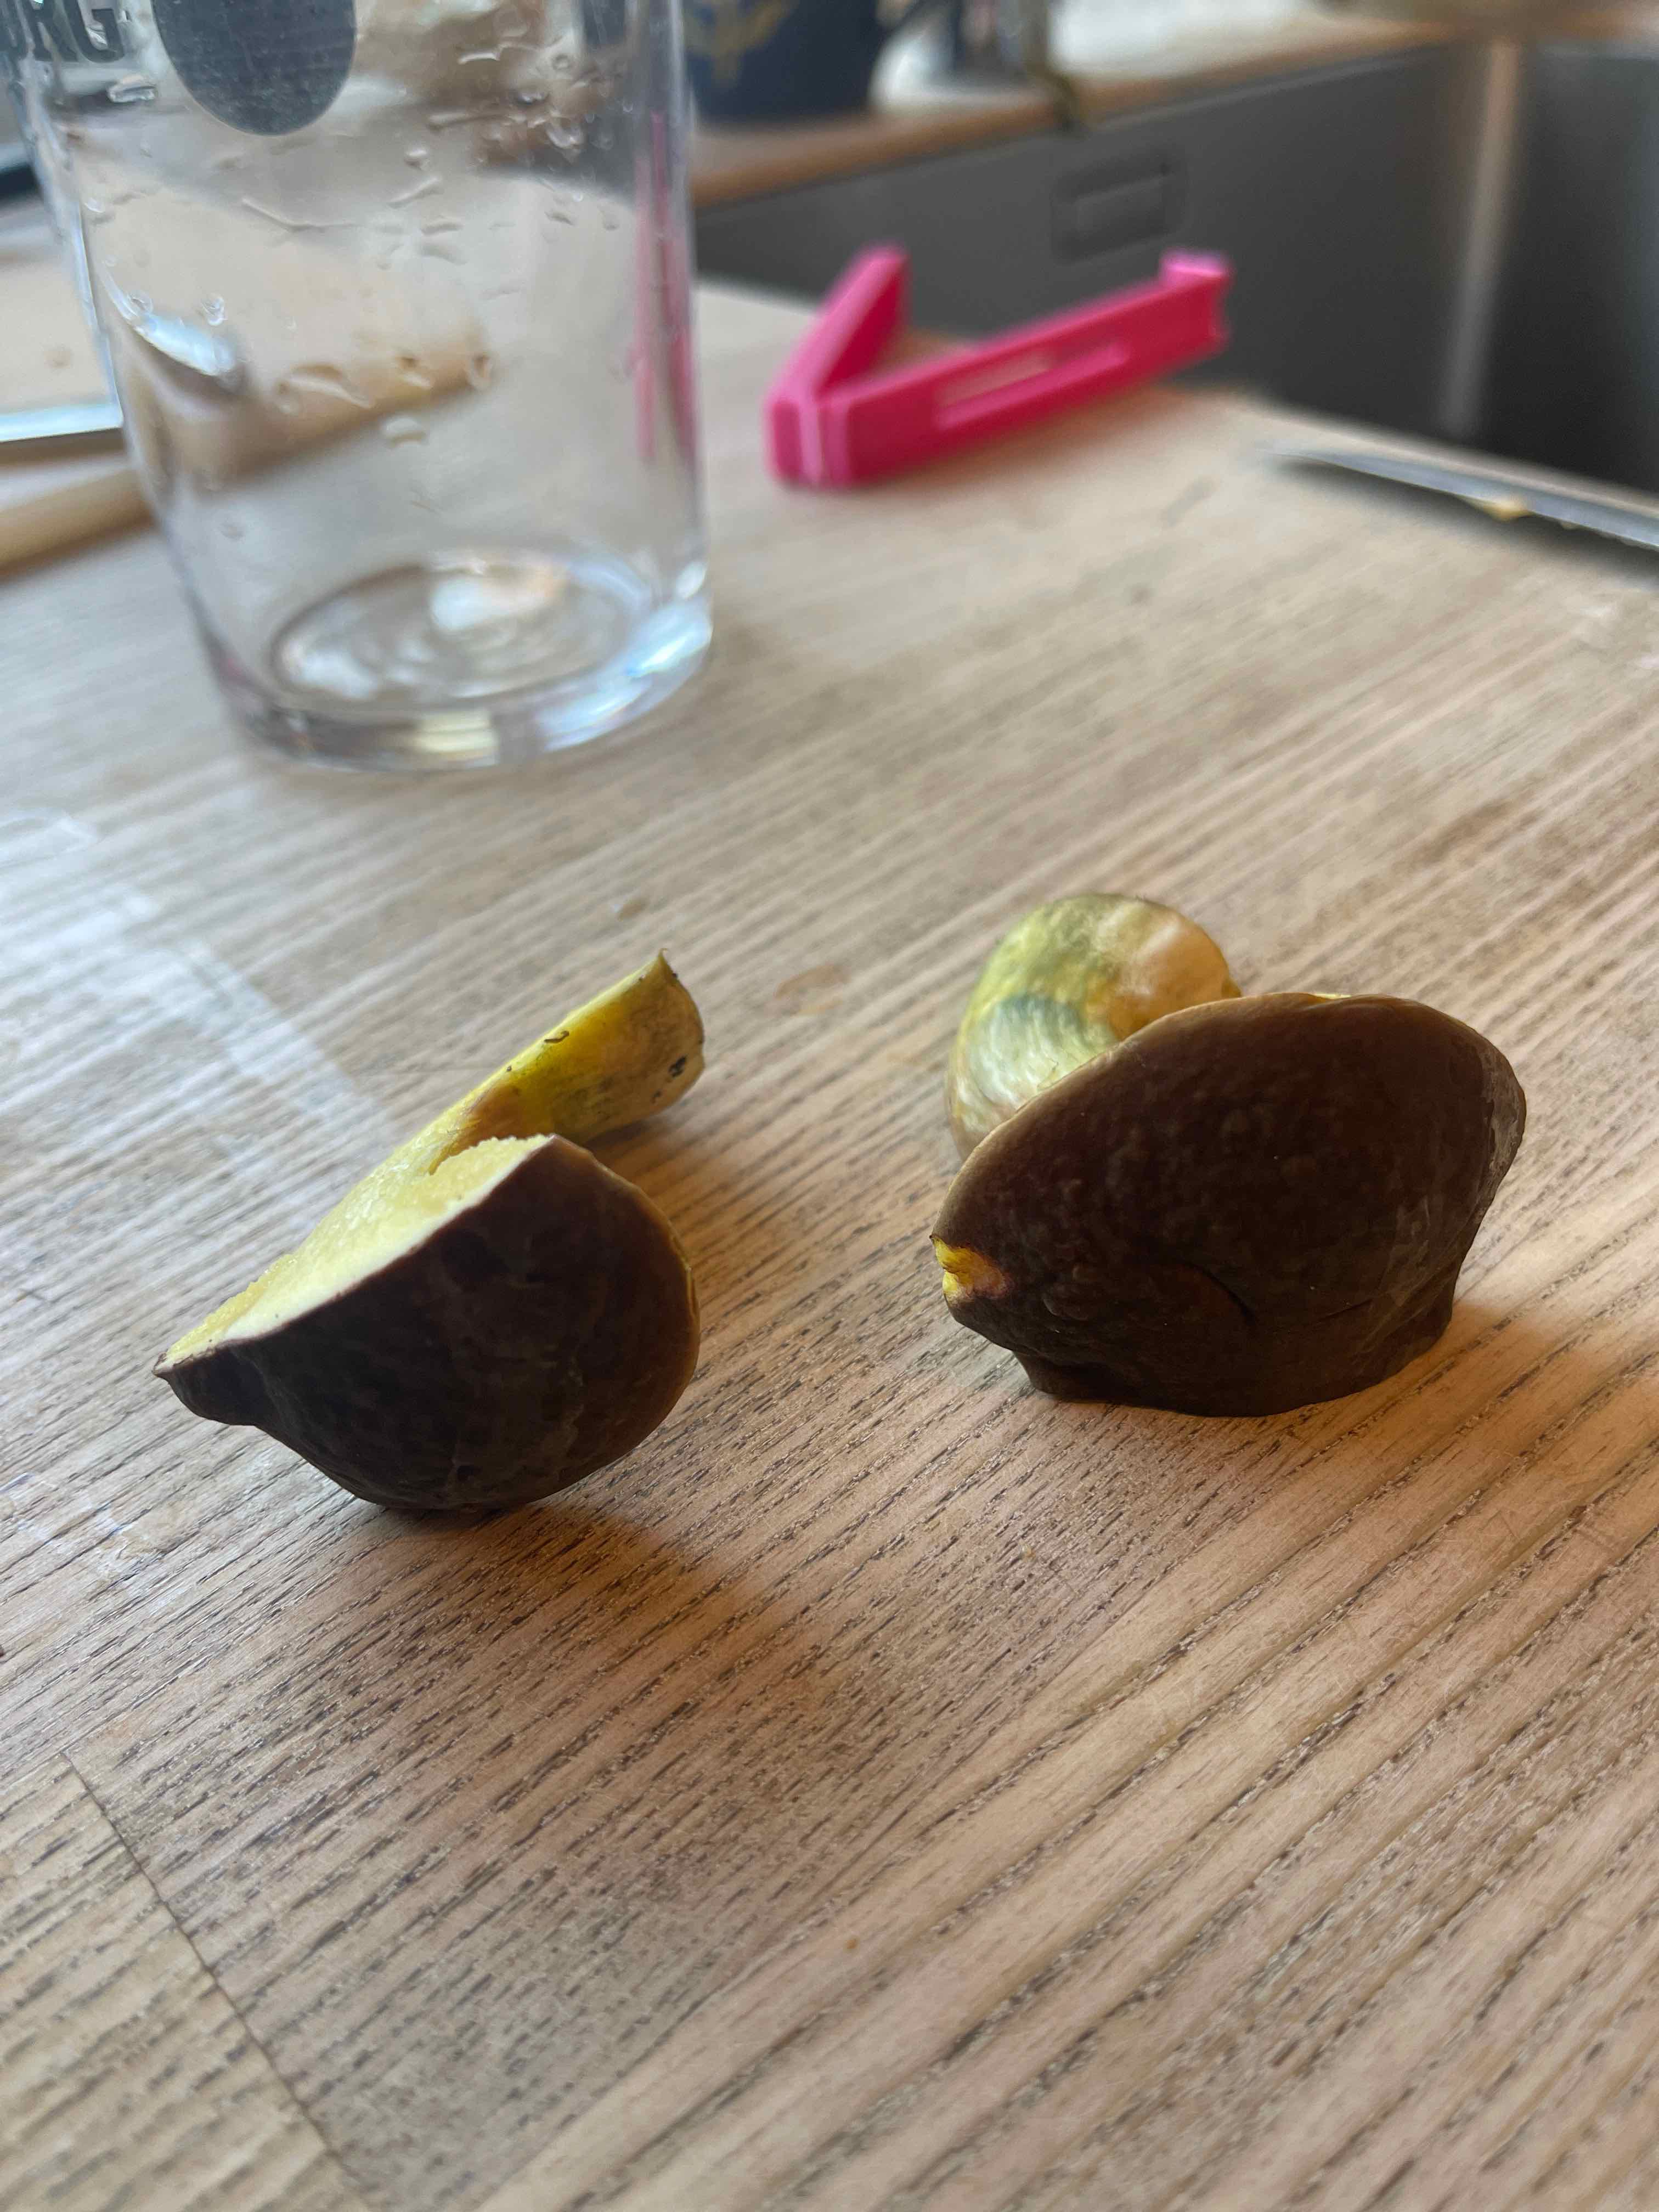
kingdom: Fungi
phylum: Basidiomycota
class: Agaricomycetes
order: Boletales
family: Boletaceae
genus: Xerocomellus
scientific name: Xerocomellus
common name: dværgrørhat
